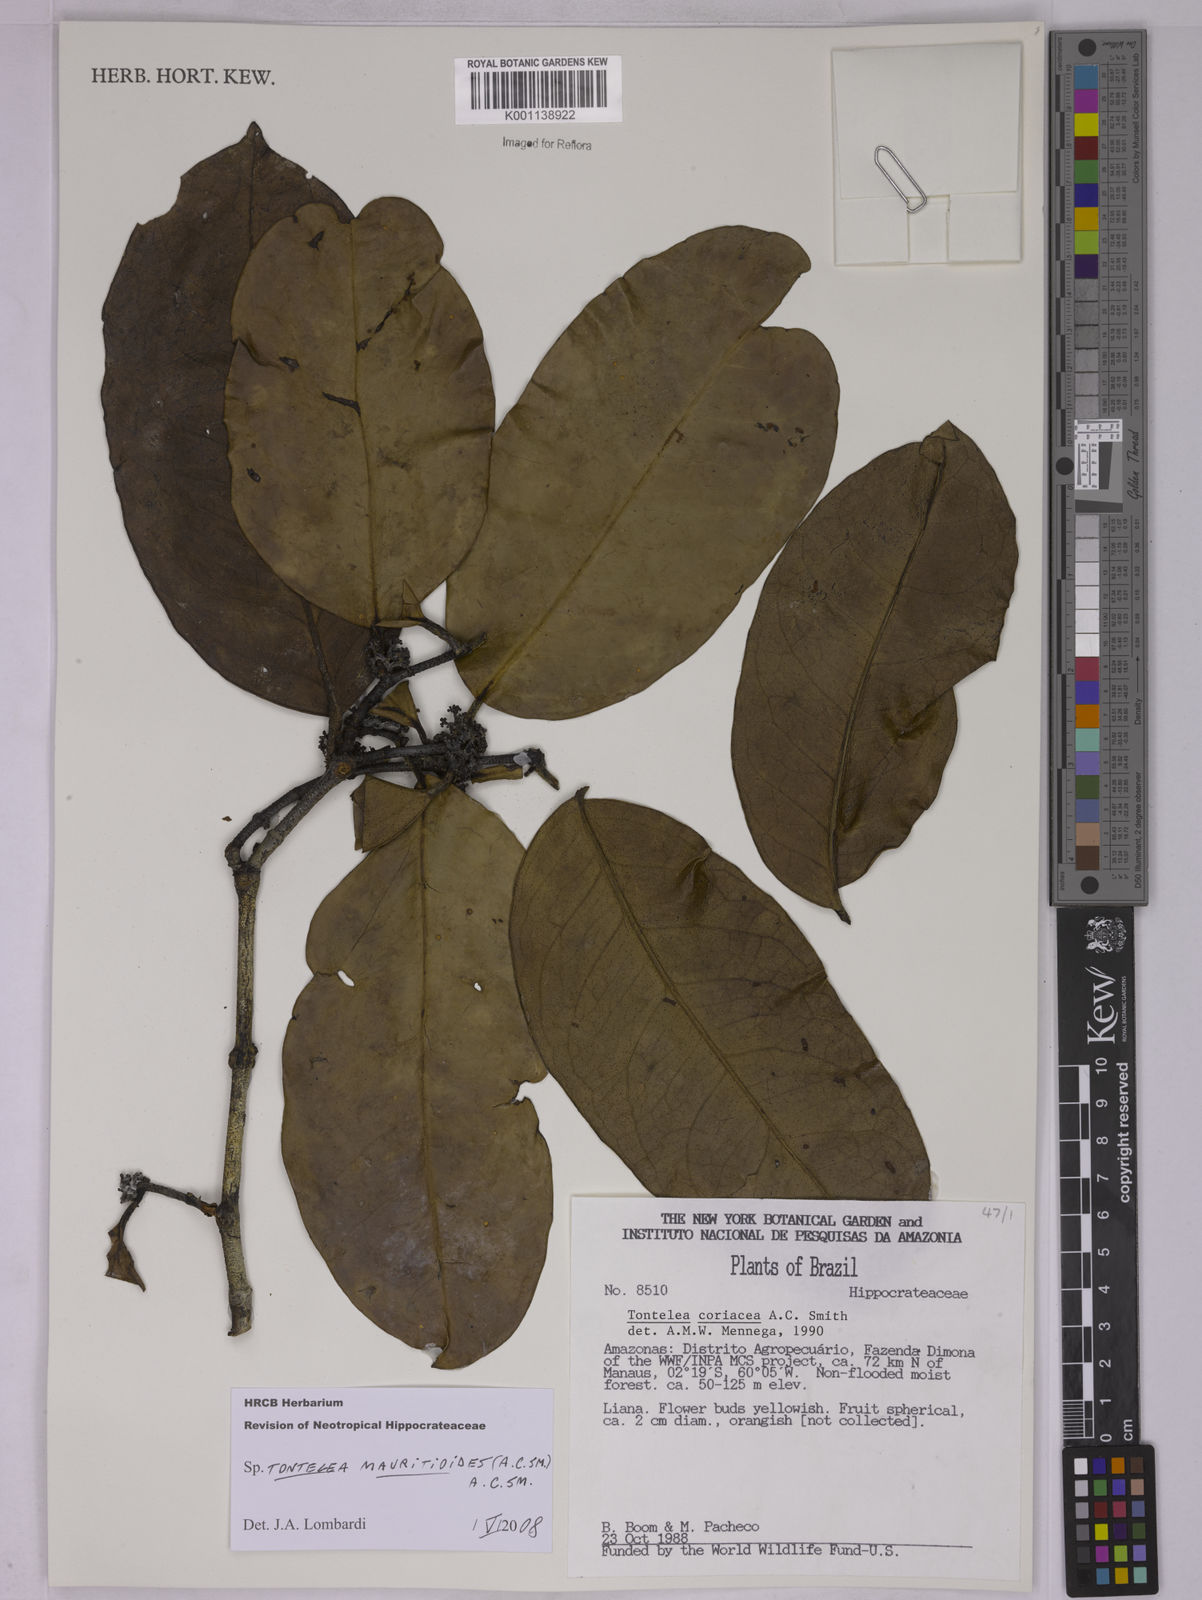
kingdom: Plantae
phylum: Tracheophyta
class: Magnoliopsida
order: Celastrales
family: Celastraceae
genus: Tontelea
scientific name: Tontelea mauritioides
